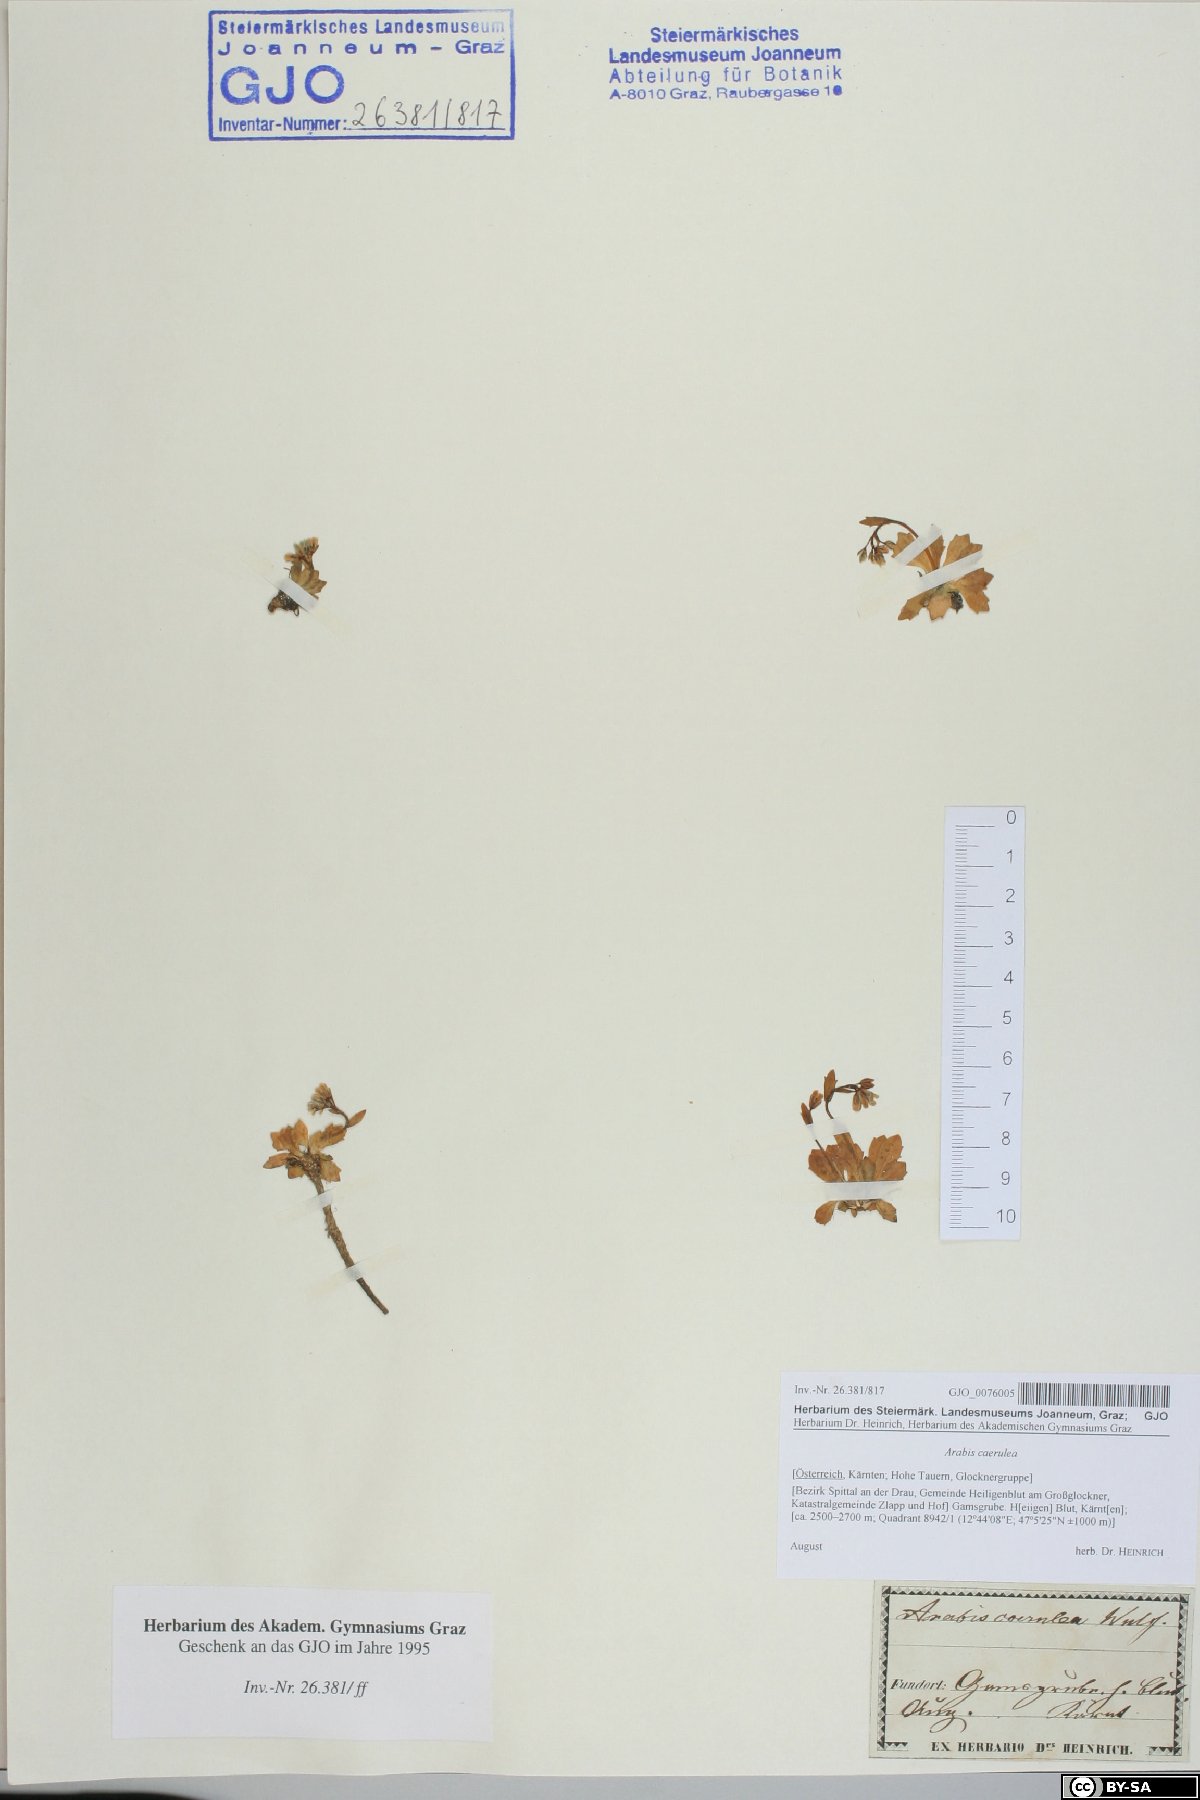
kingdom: Plantae
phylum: Tracheophyta
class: Magnoliopsida
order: Brassicales
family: Brassicaceae
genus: Arabis
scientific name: Arabis caerulea
